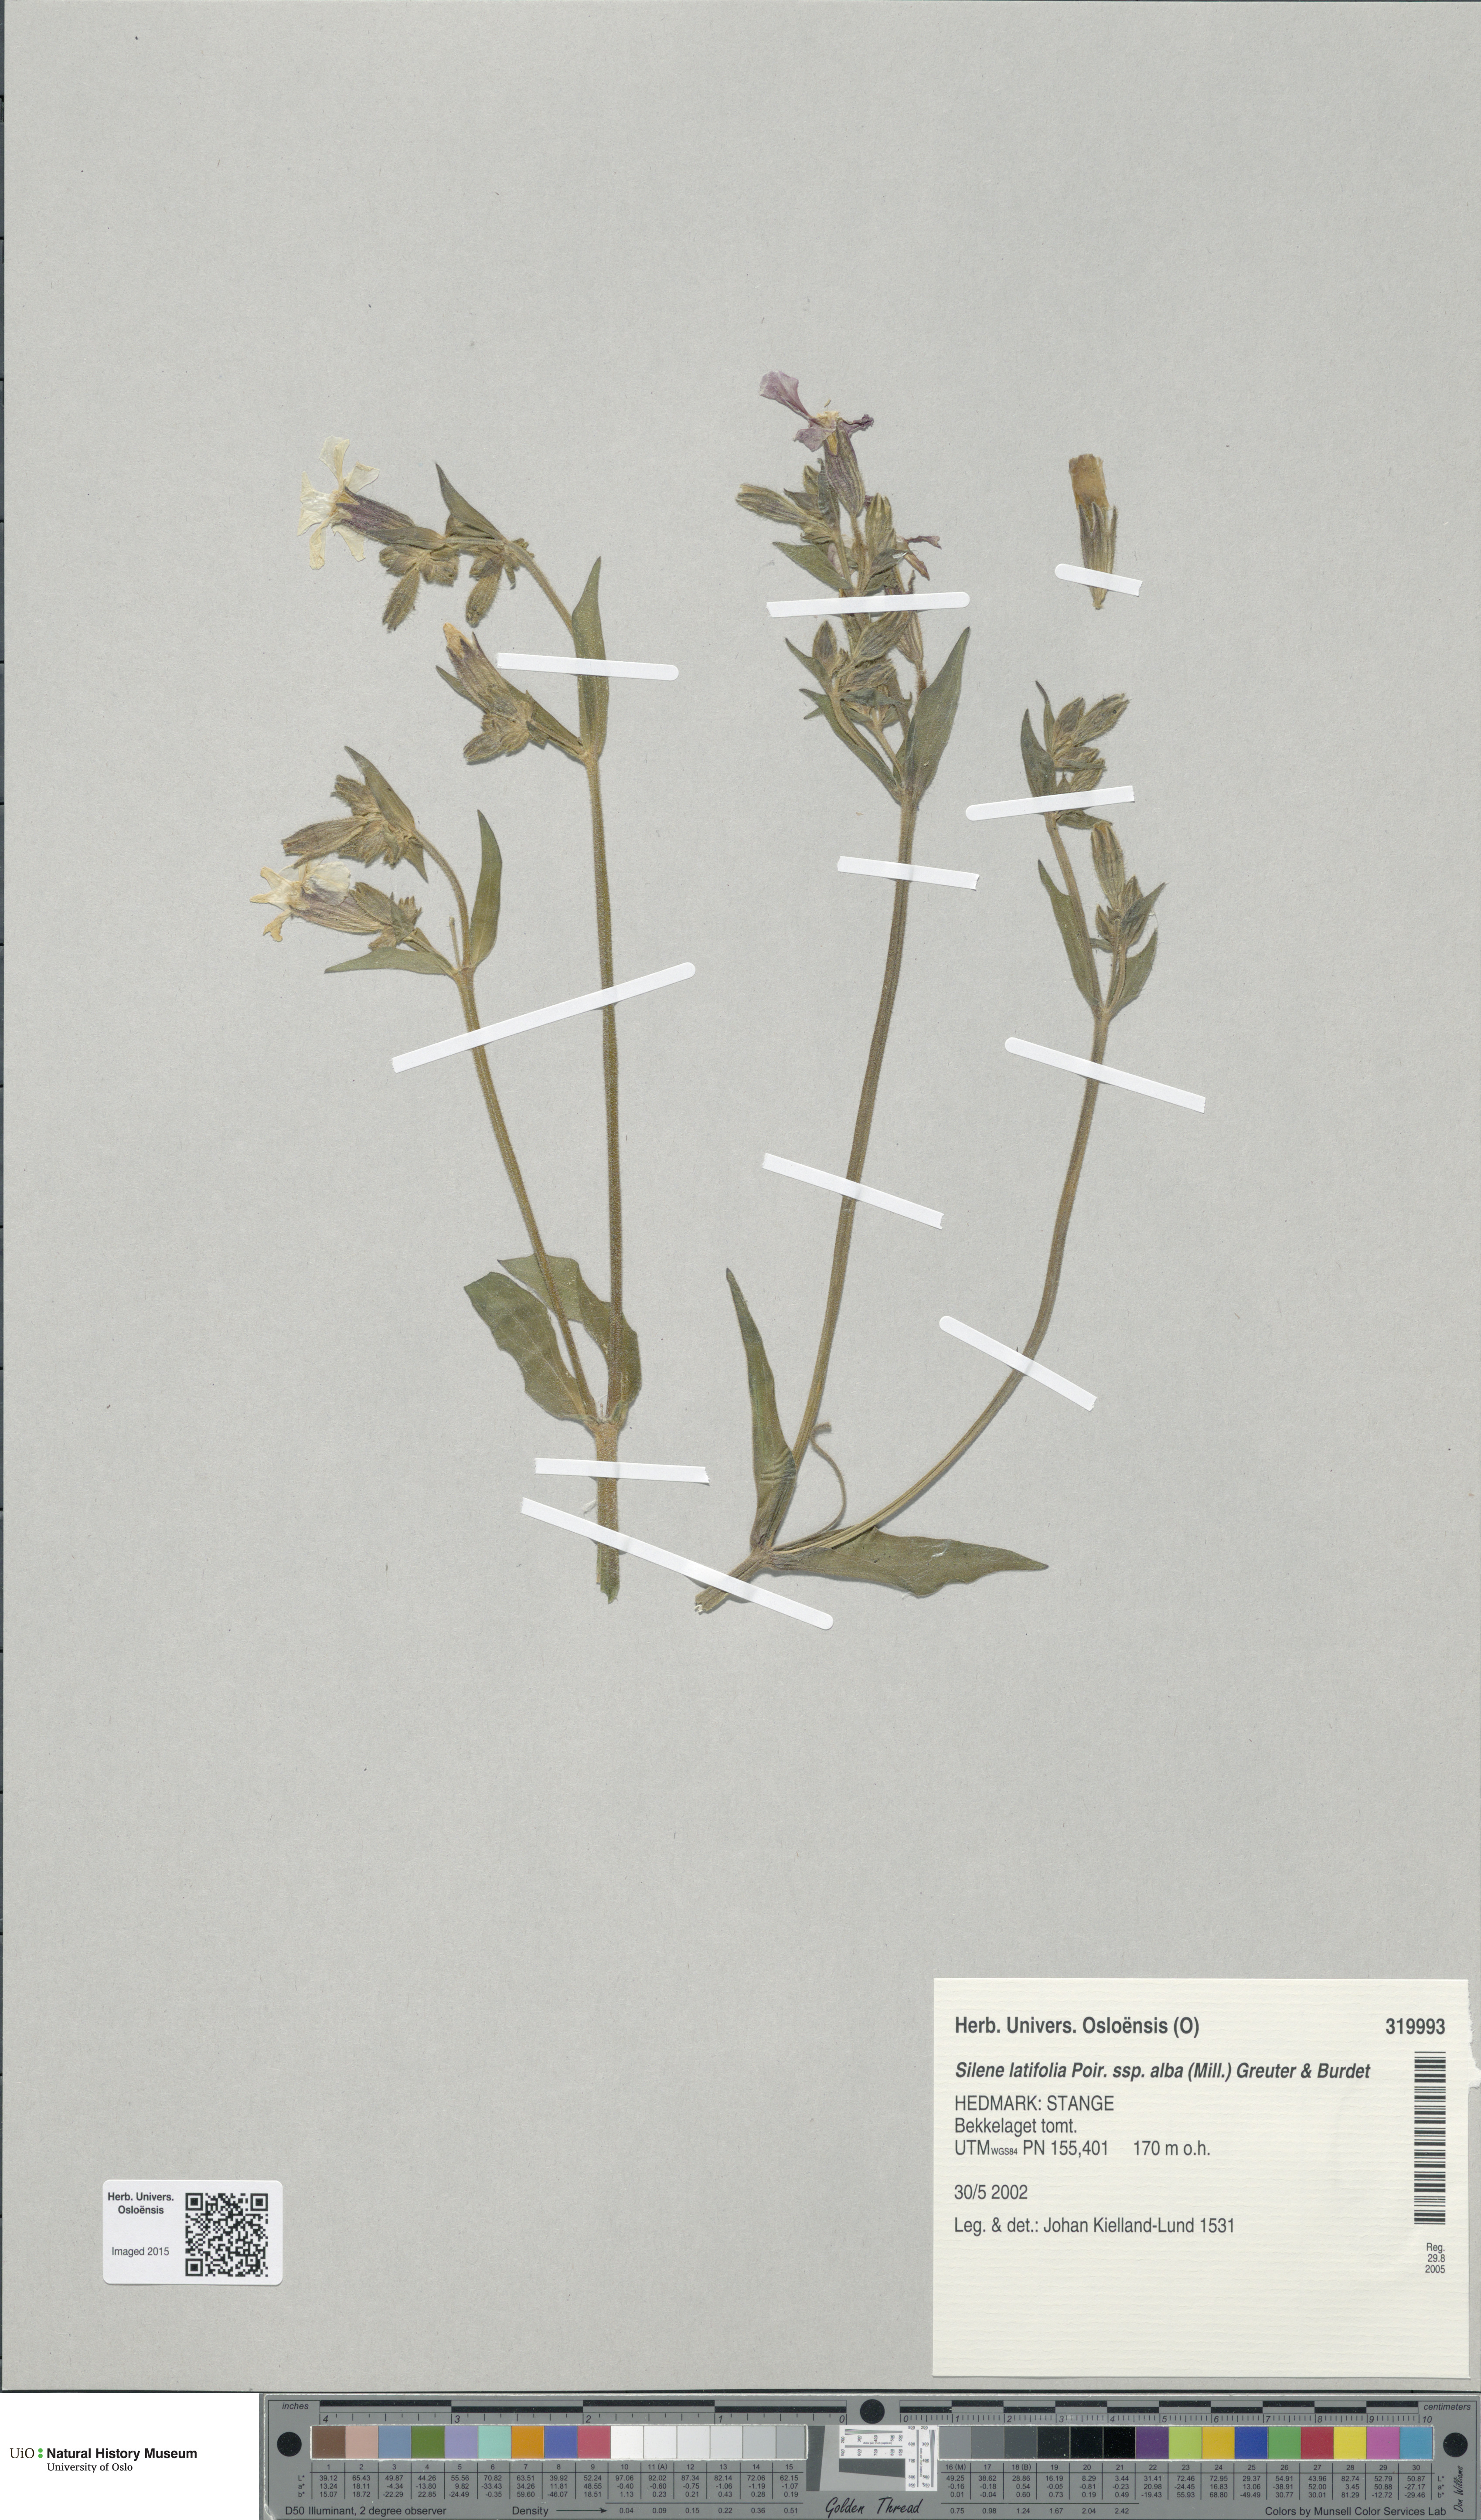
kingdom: Plantae
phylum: Tracheophyta
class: Magnoliopsida
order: Caryophyllales
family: Caryophyllaceae
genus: Silene
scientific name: Silene latifolia
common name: White campion
